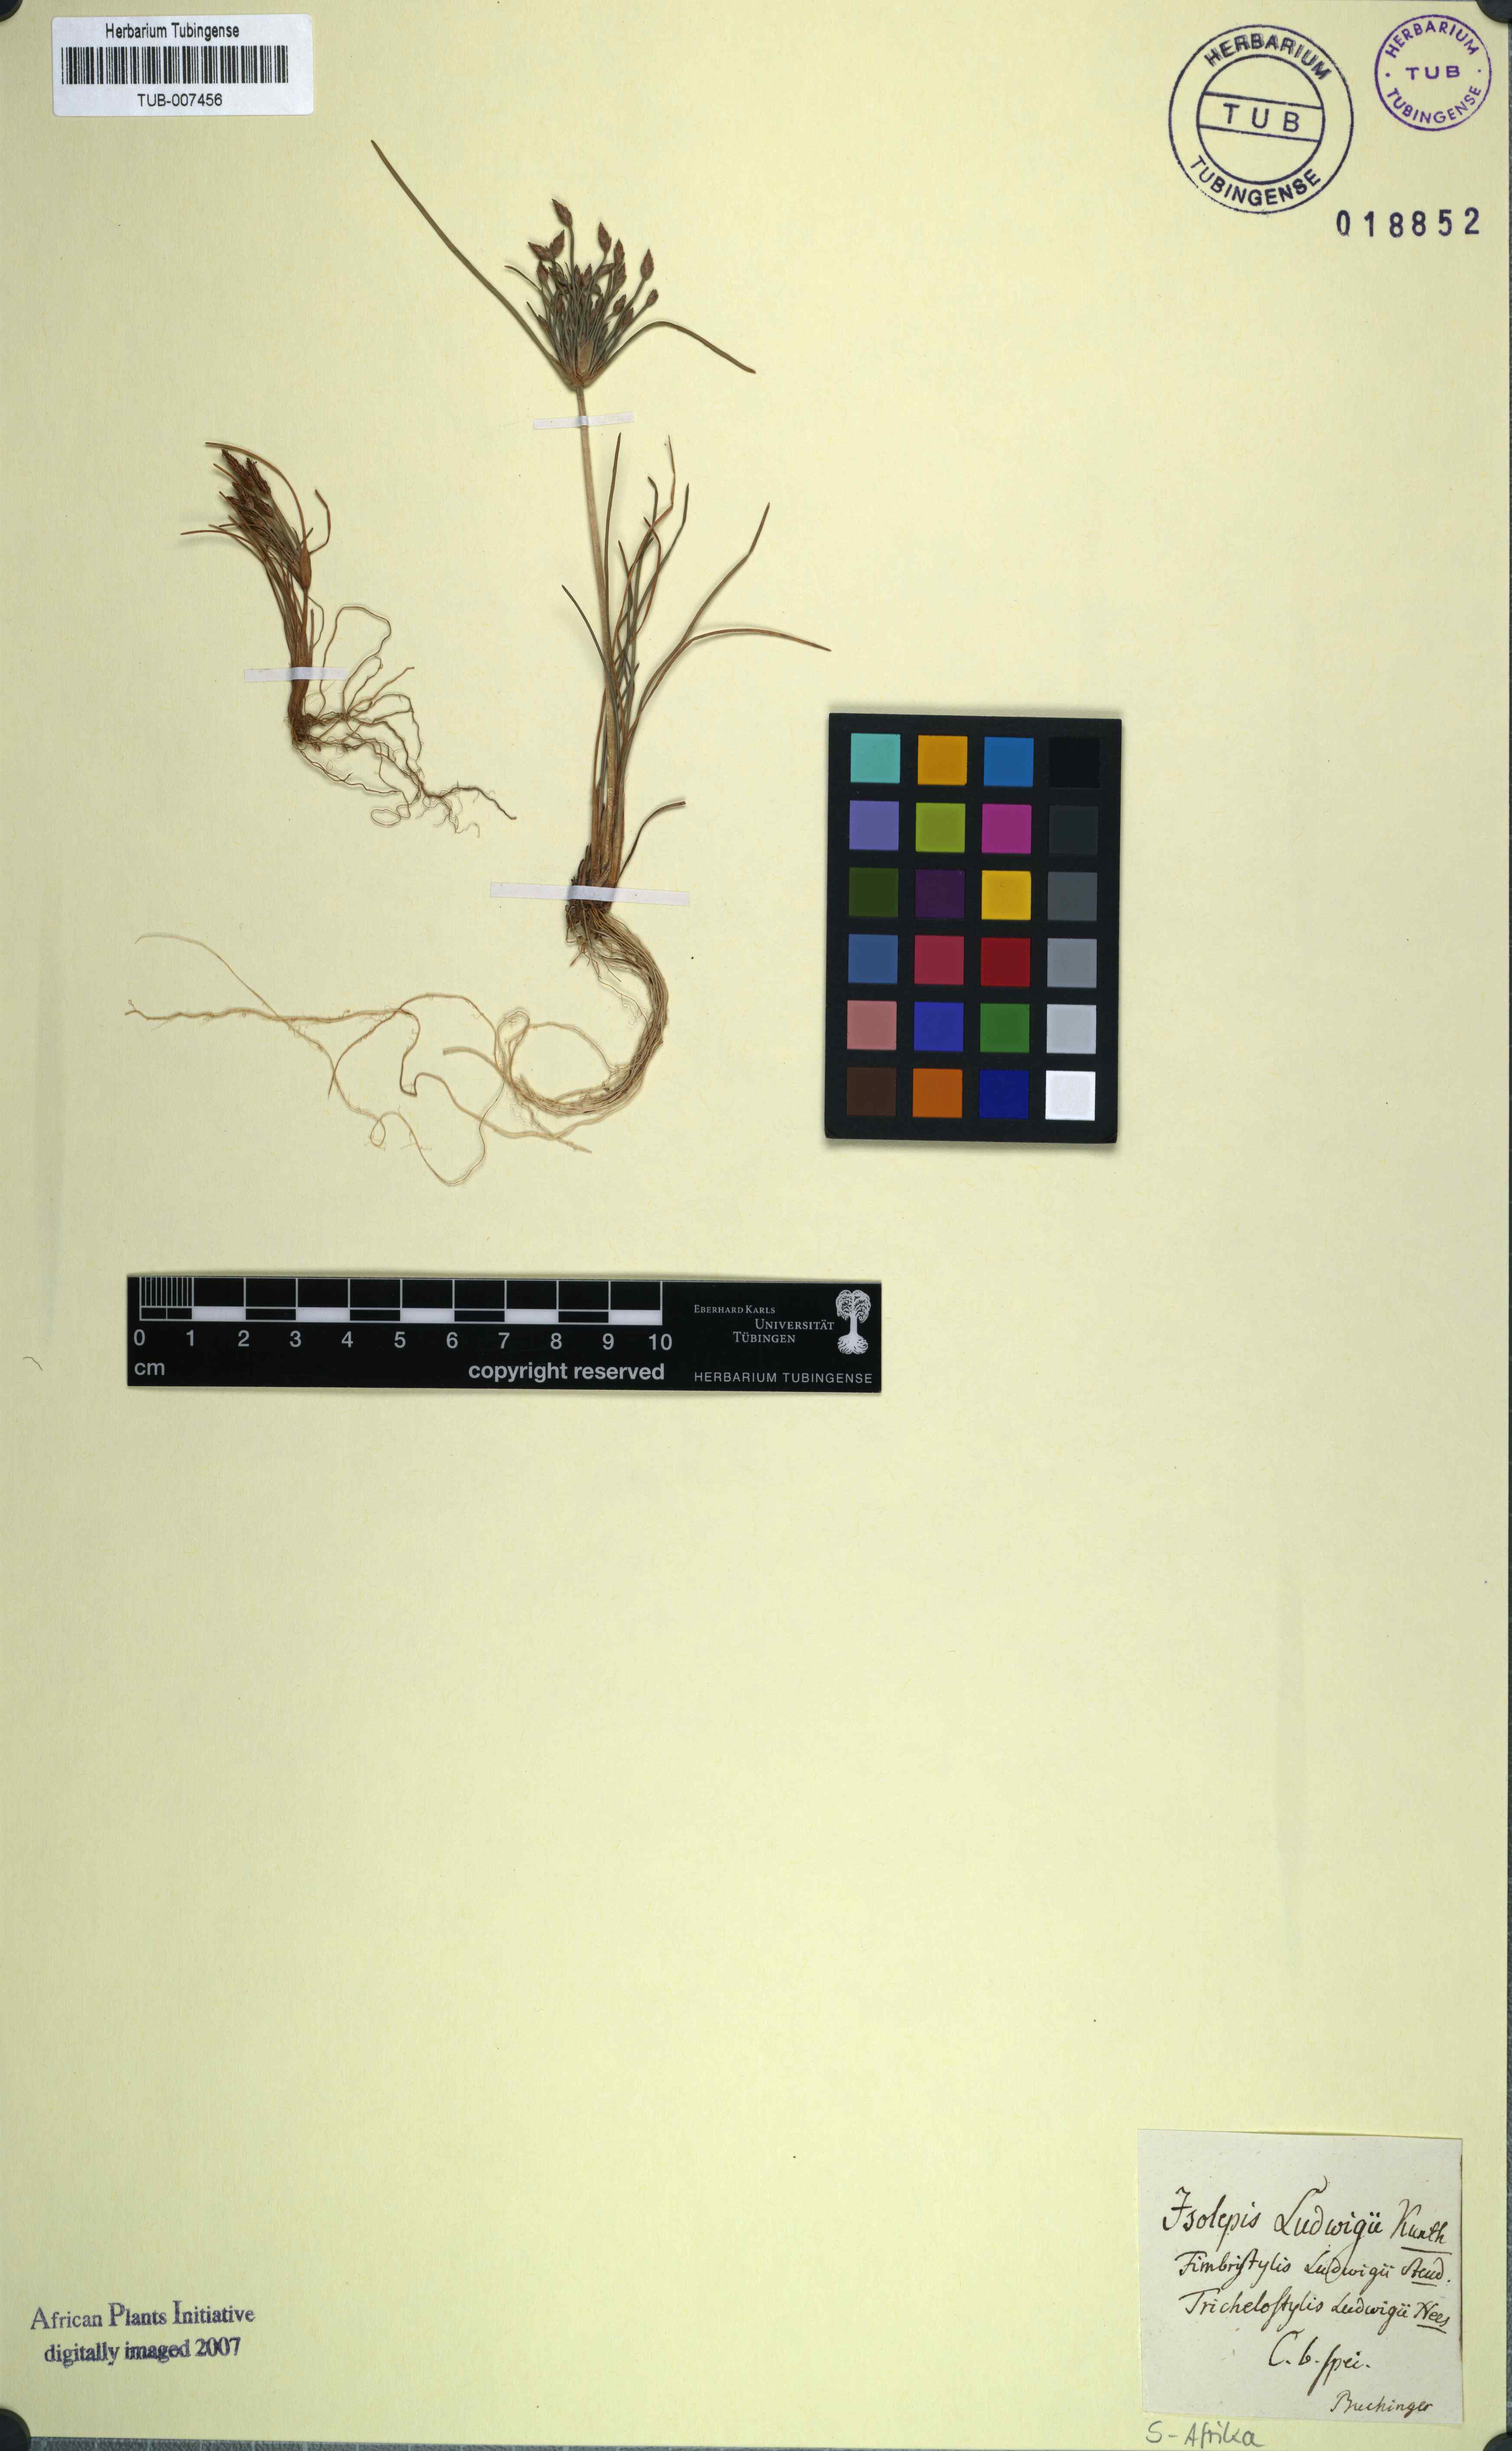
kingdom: Plantae
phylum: Tracheophyta
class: Liliopsida
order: Poales
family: Cyperaceae
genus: Isolepis
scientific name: Isolepis ludwigii
